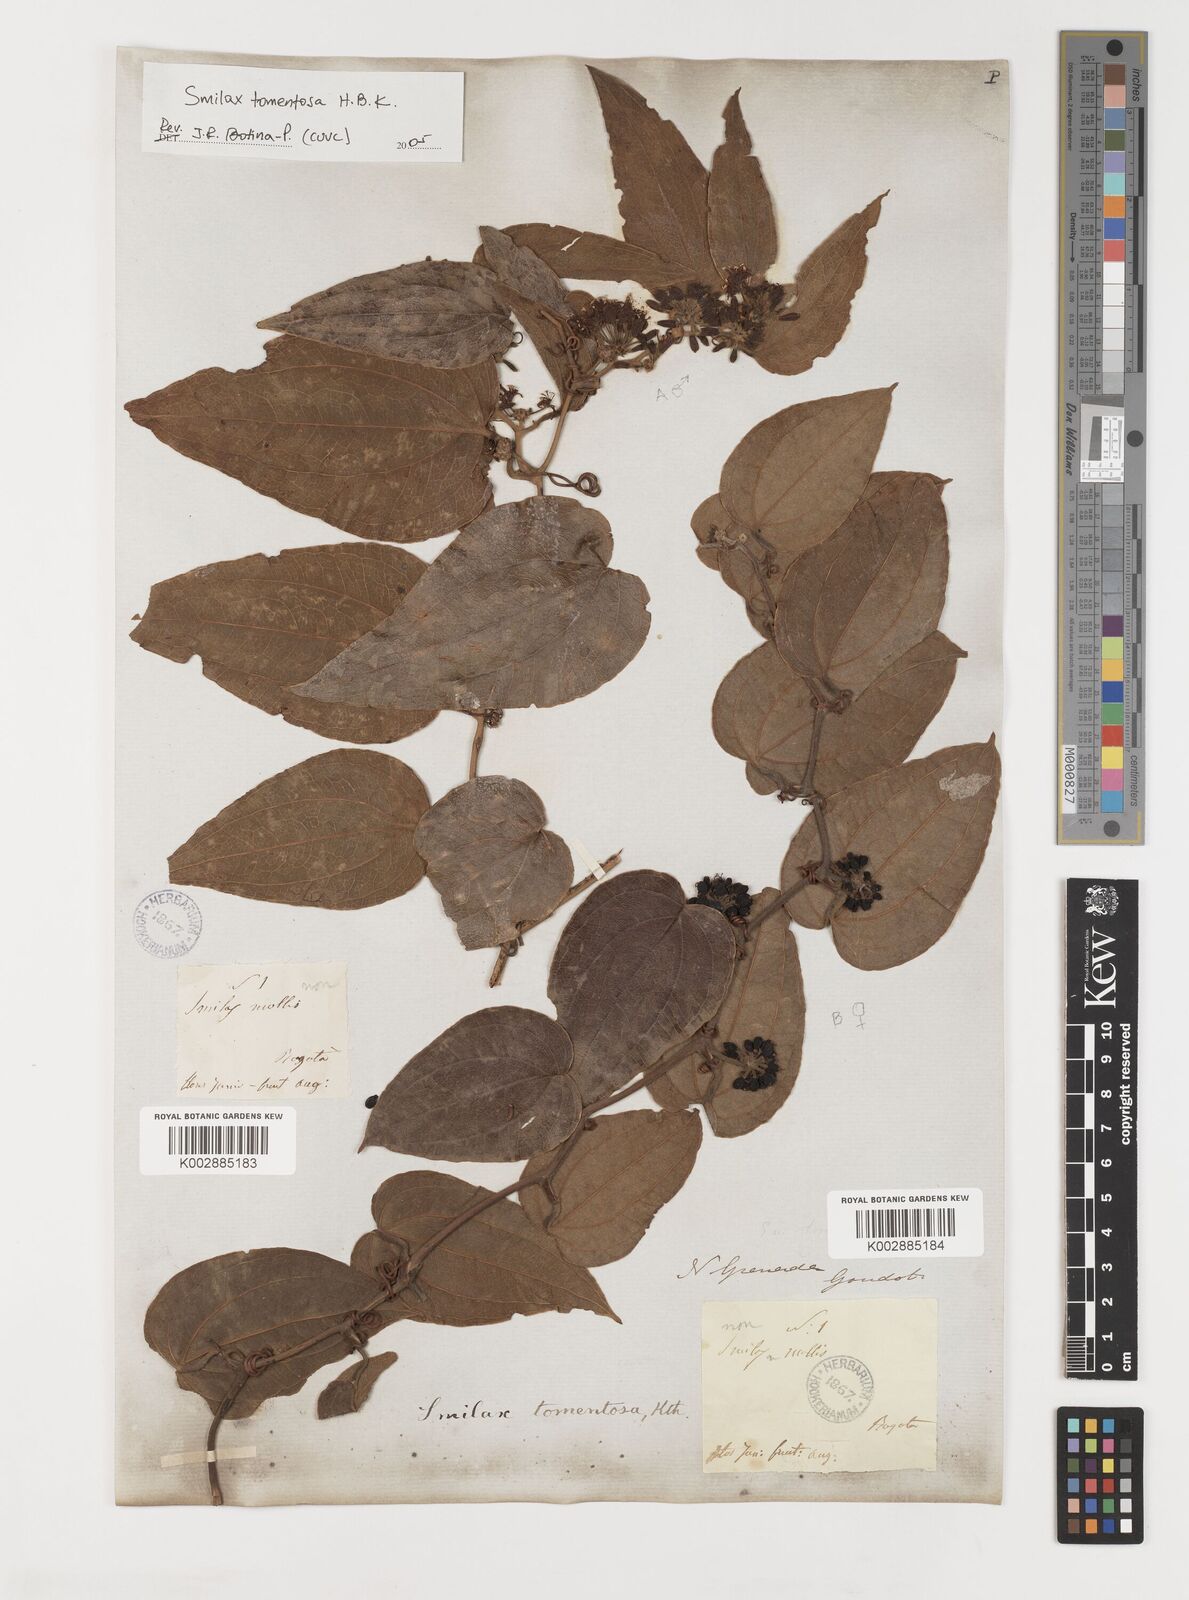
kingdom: Plantae
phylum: Tracheophyta
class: Liliopsida
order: Liliales
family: Smilacaceae
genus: Smilax
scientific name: Smilax tomentosa
